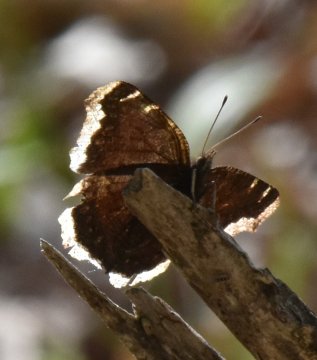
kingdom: Animalia
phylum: Arthropoda
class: Insecta
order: Lepidoptera
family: Nymphalidae
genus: Nymphalis
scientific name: Nymphalis antiopa
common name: Mourning Cloak
